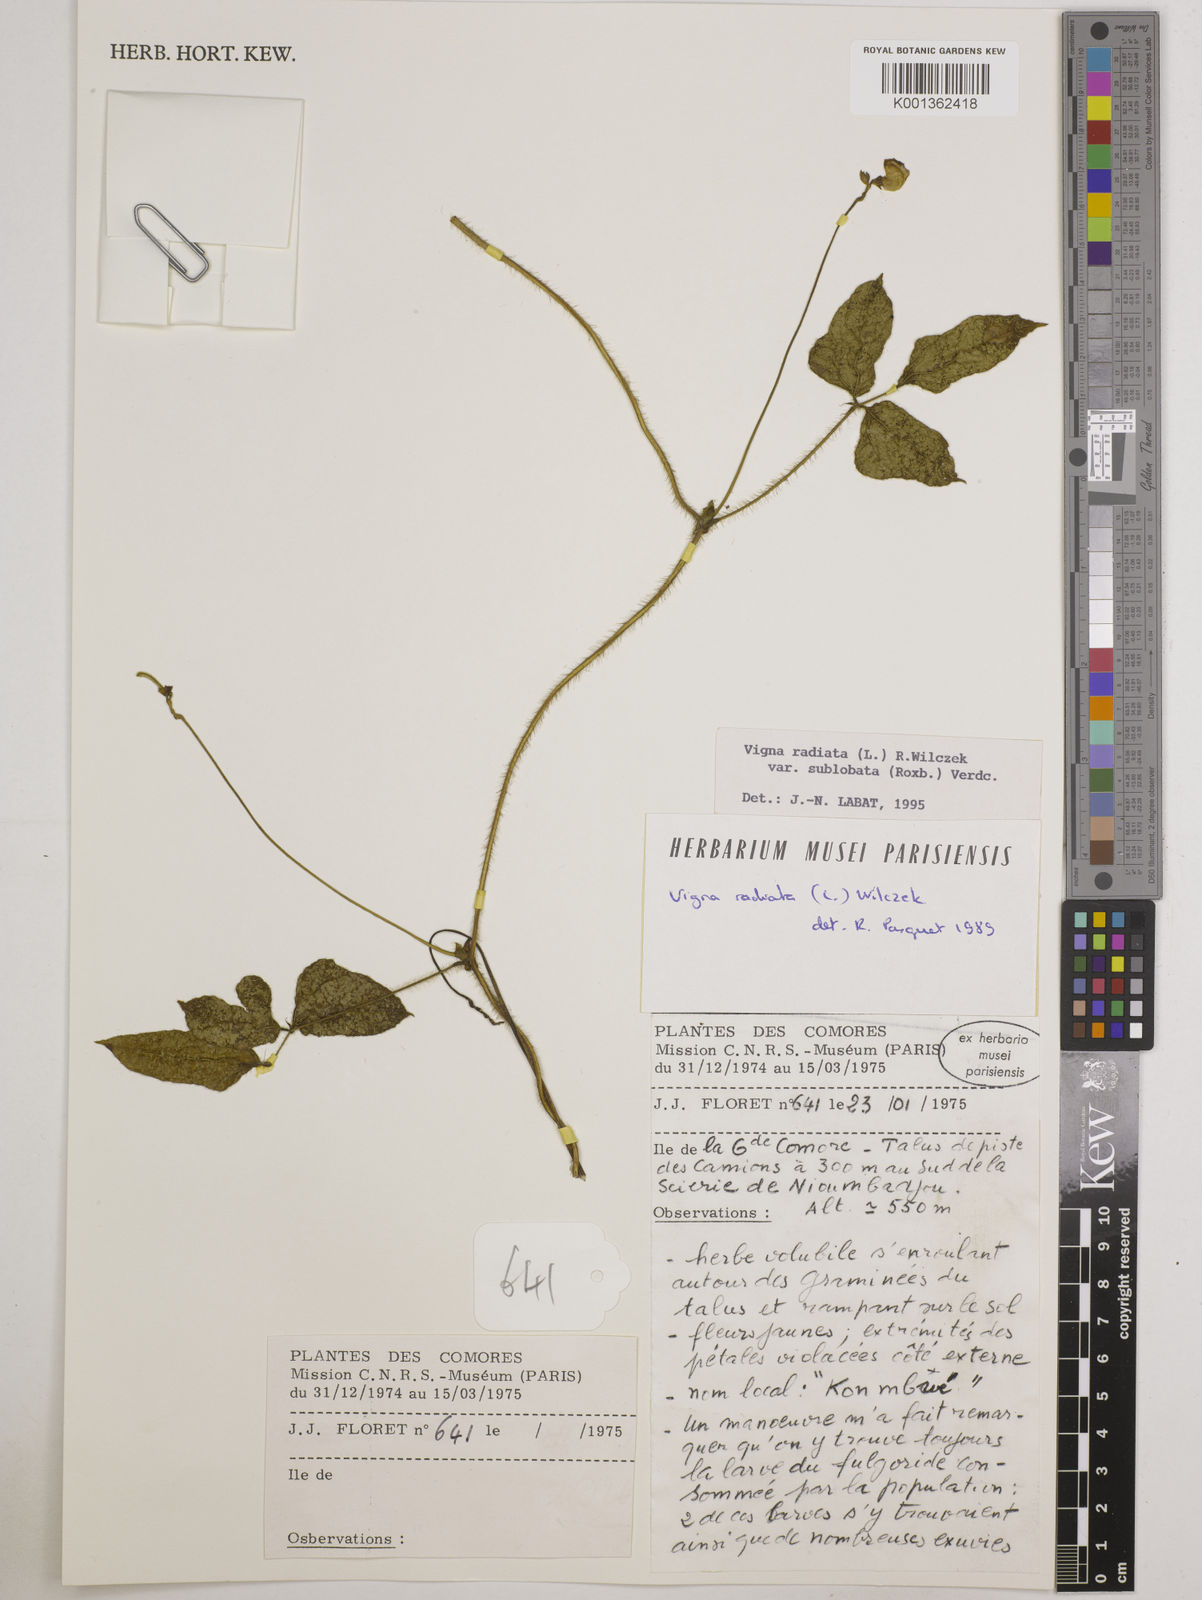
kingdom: Plantae
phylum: Tracheophyta
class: Magnoliopsida
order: Fabales
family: Fabaceae
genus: Vigna
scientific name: Vigna radiata
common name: Mung-bean
